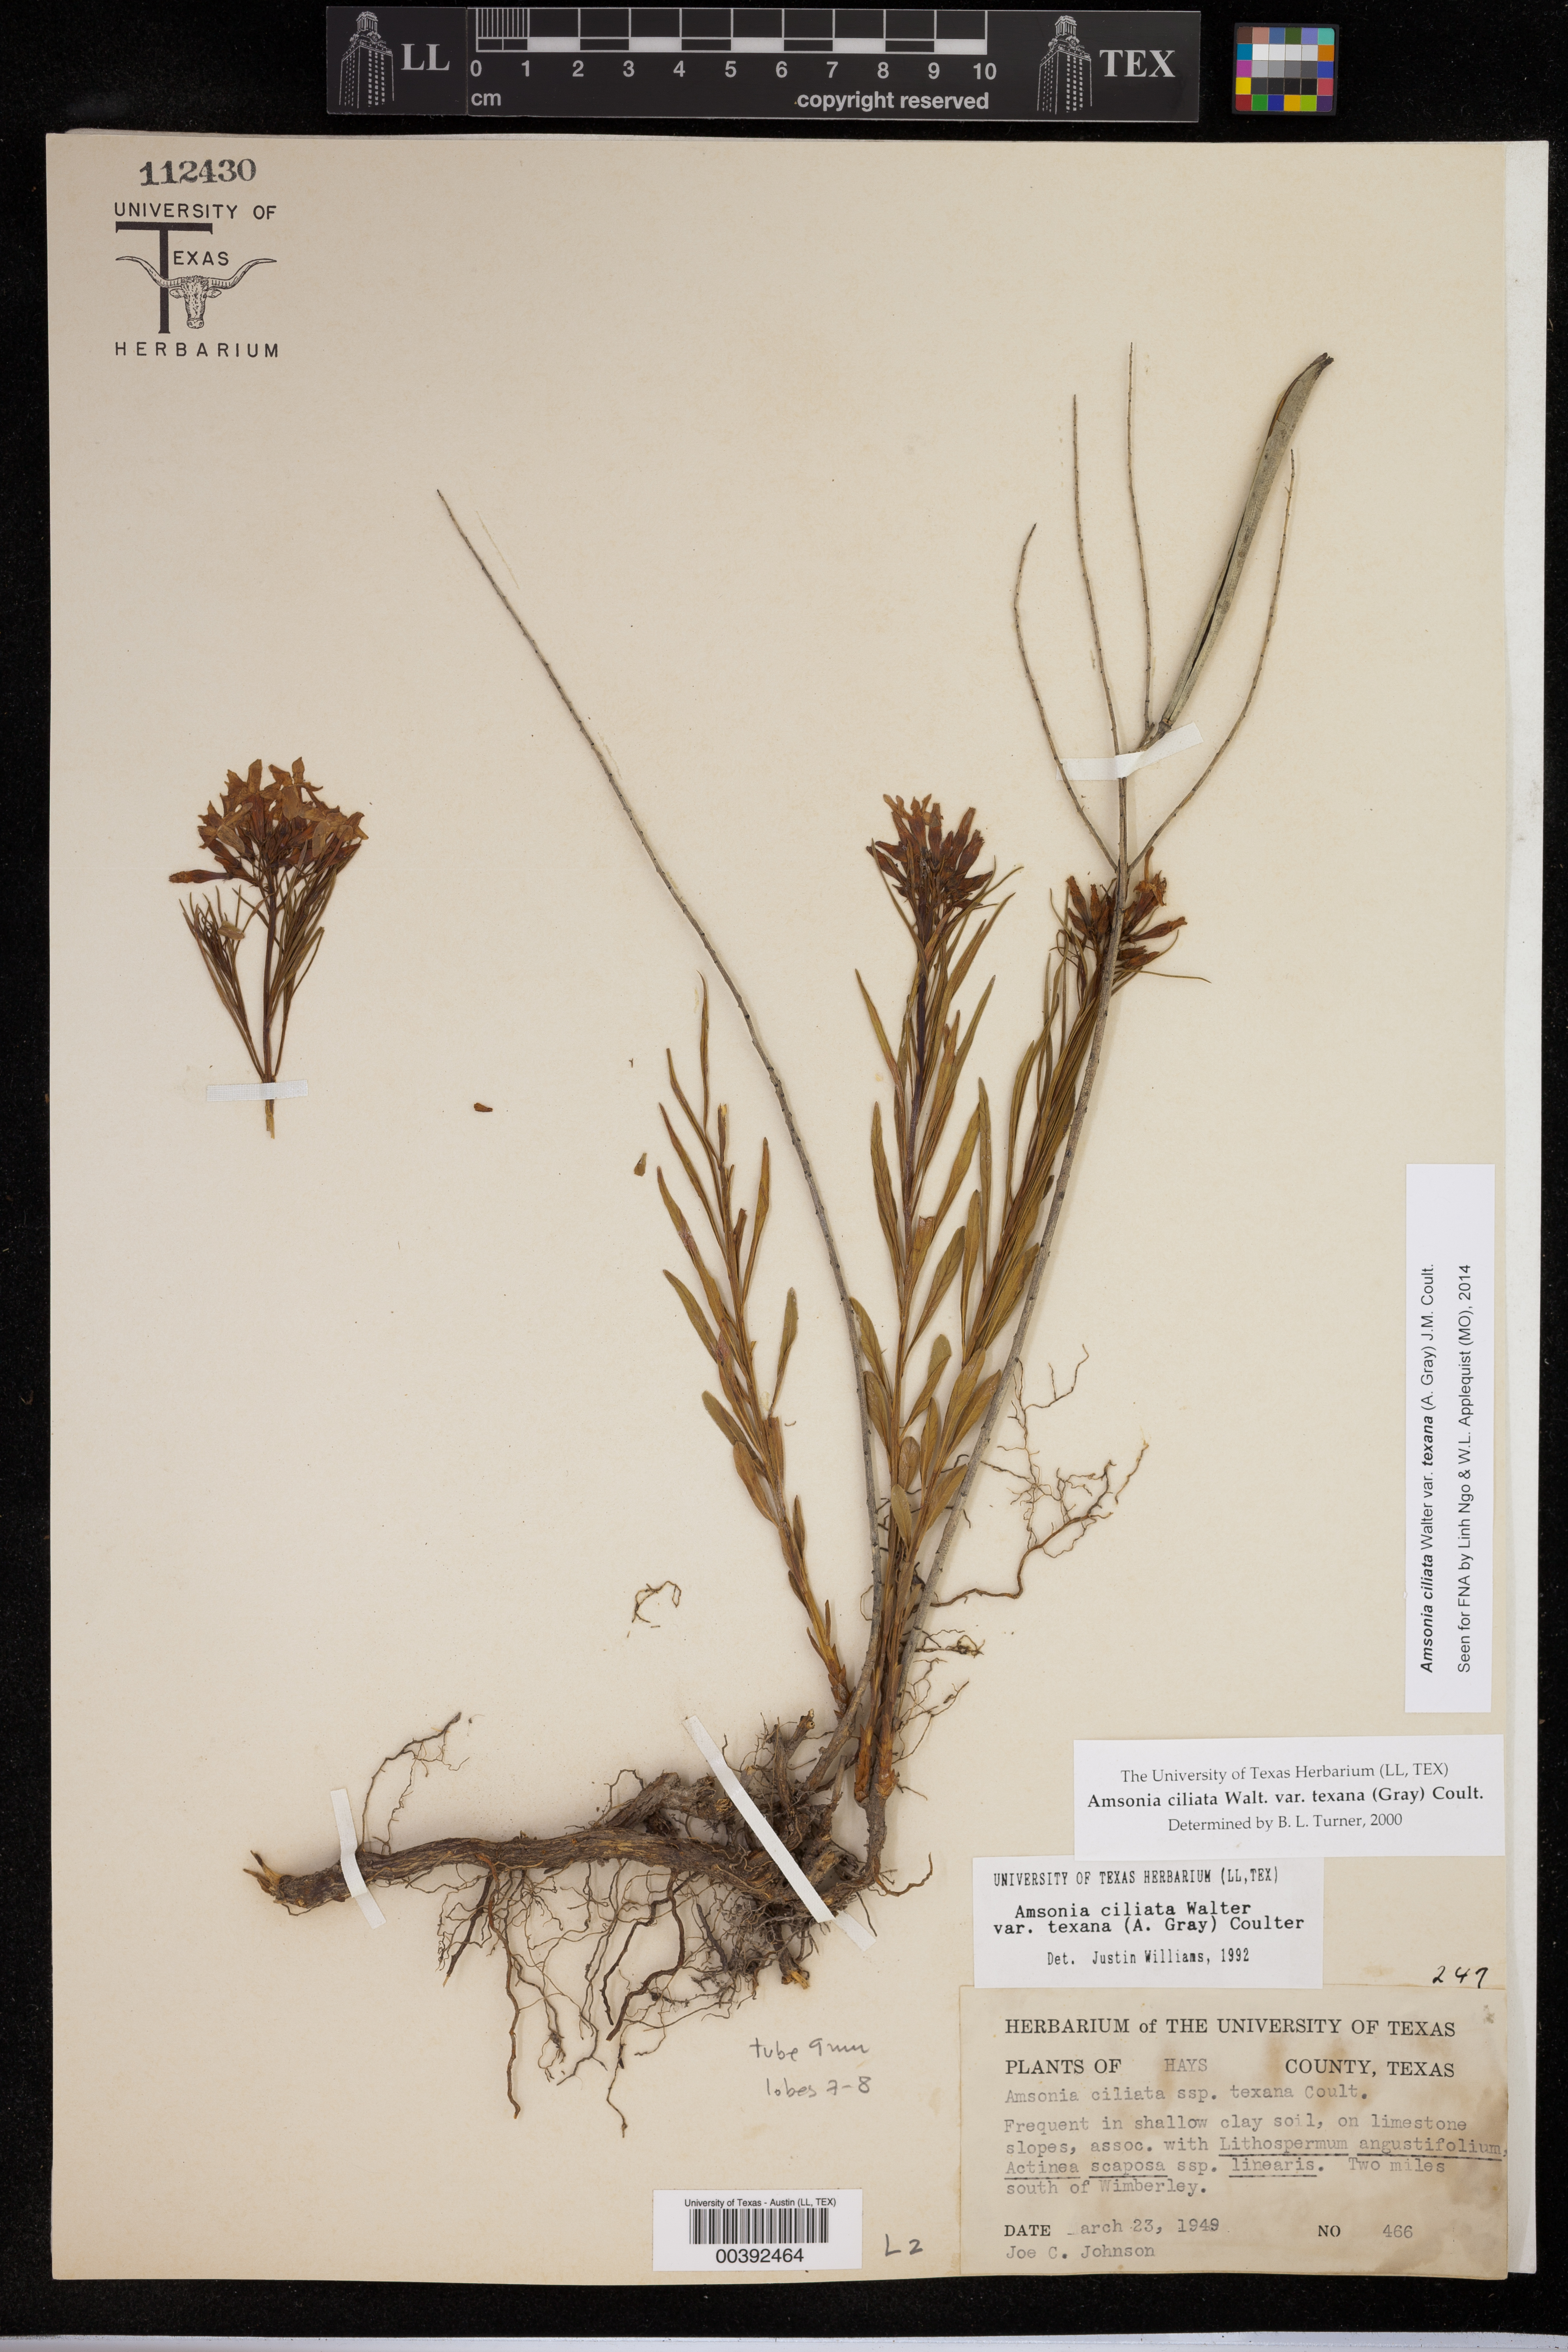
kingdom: Plantae
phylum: Tracheophyta
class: Magnoliopsida
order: Gentianales
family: Apocynaceae
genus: Amsonia
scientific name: Amsonia ciliata
